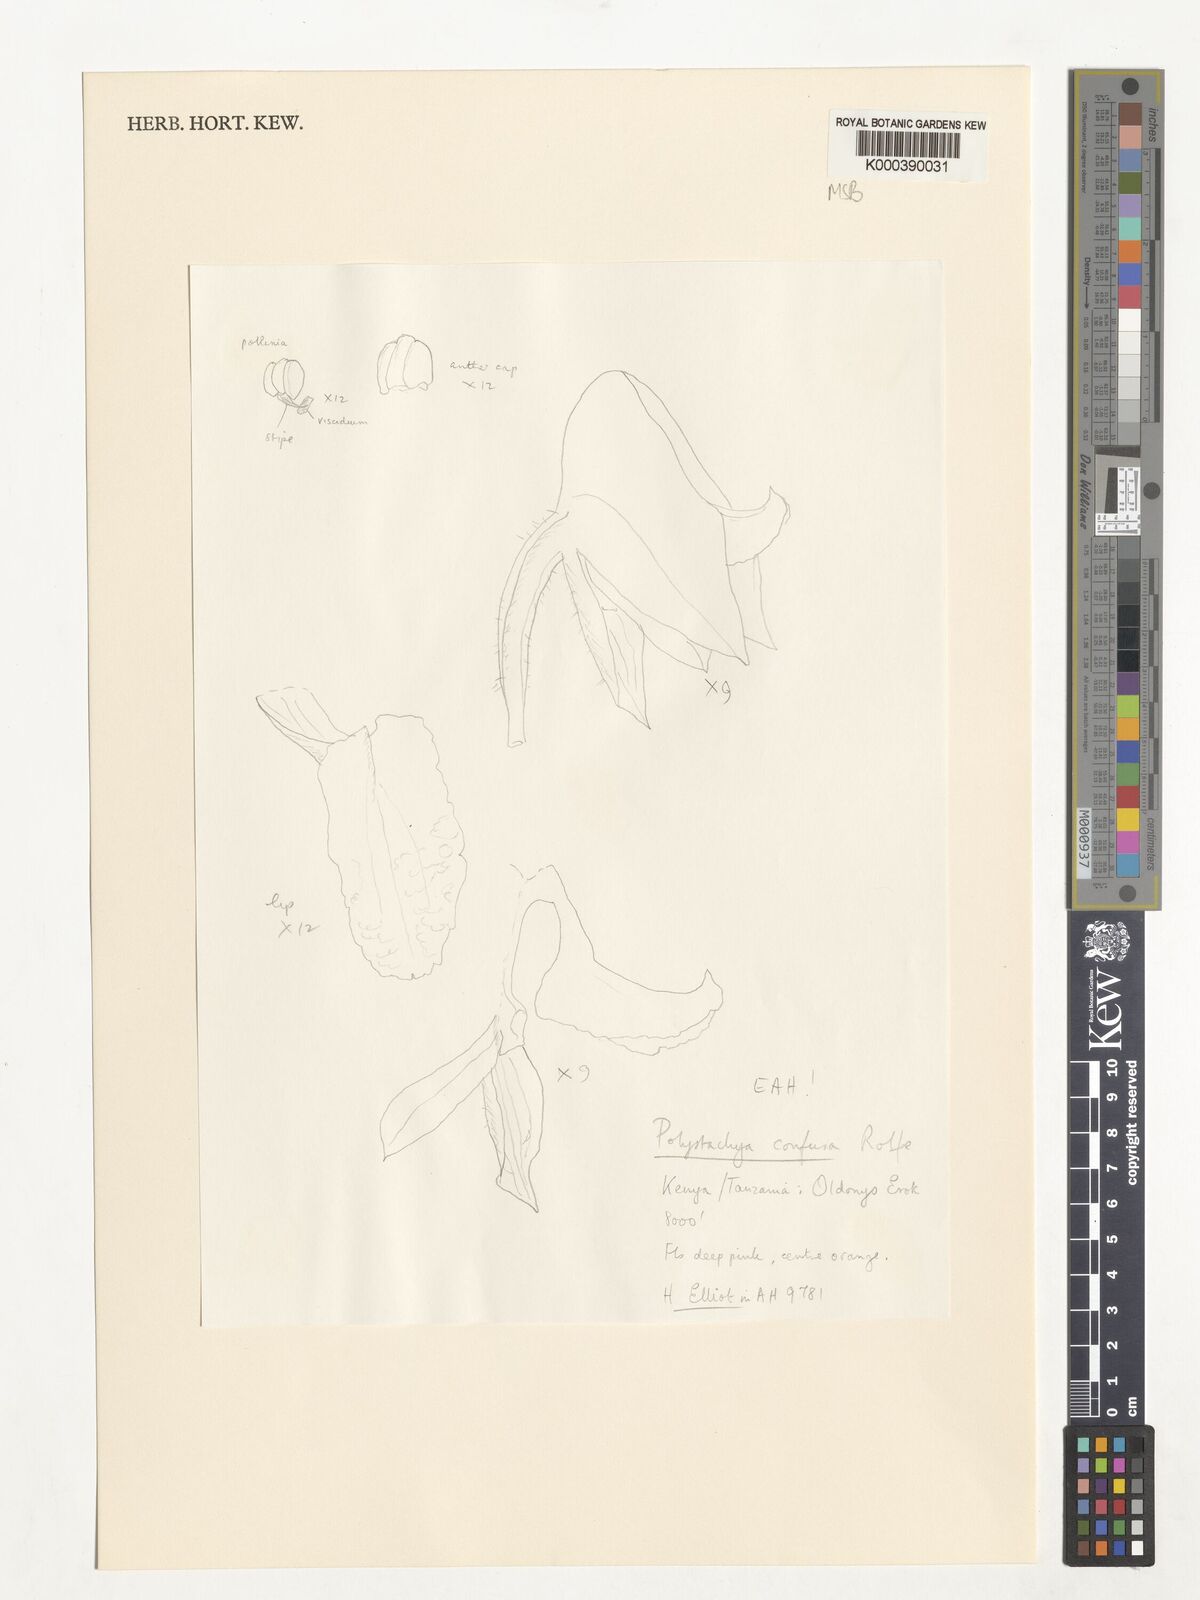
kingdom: Plantae
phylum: Tracheophyta
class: Liliopsida
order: Asparagales
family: Orchidaceae
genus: Polystachya
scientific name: Polystachya confusa
